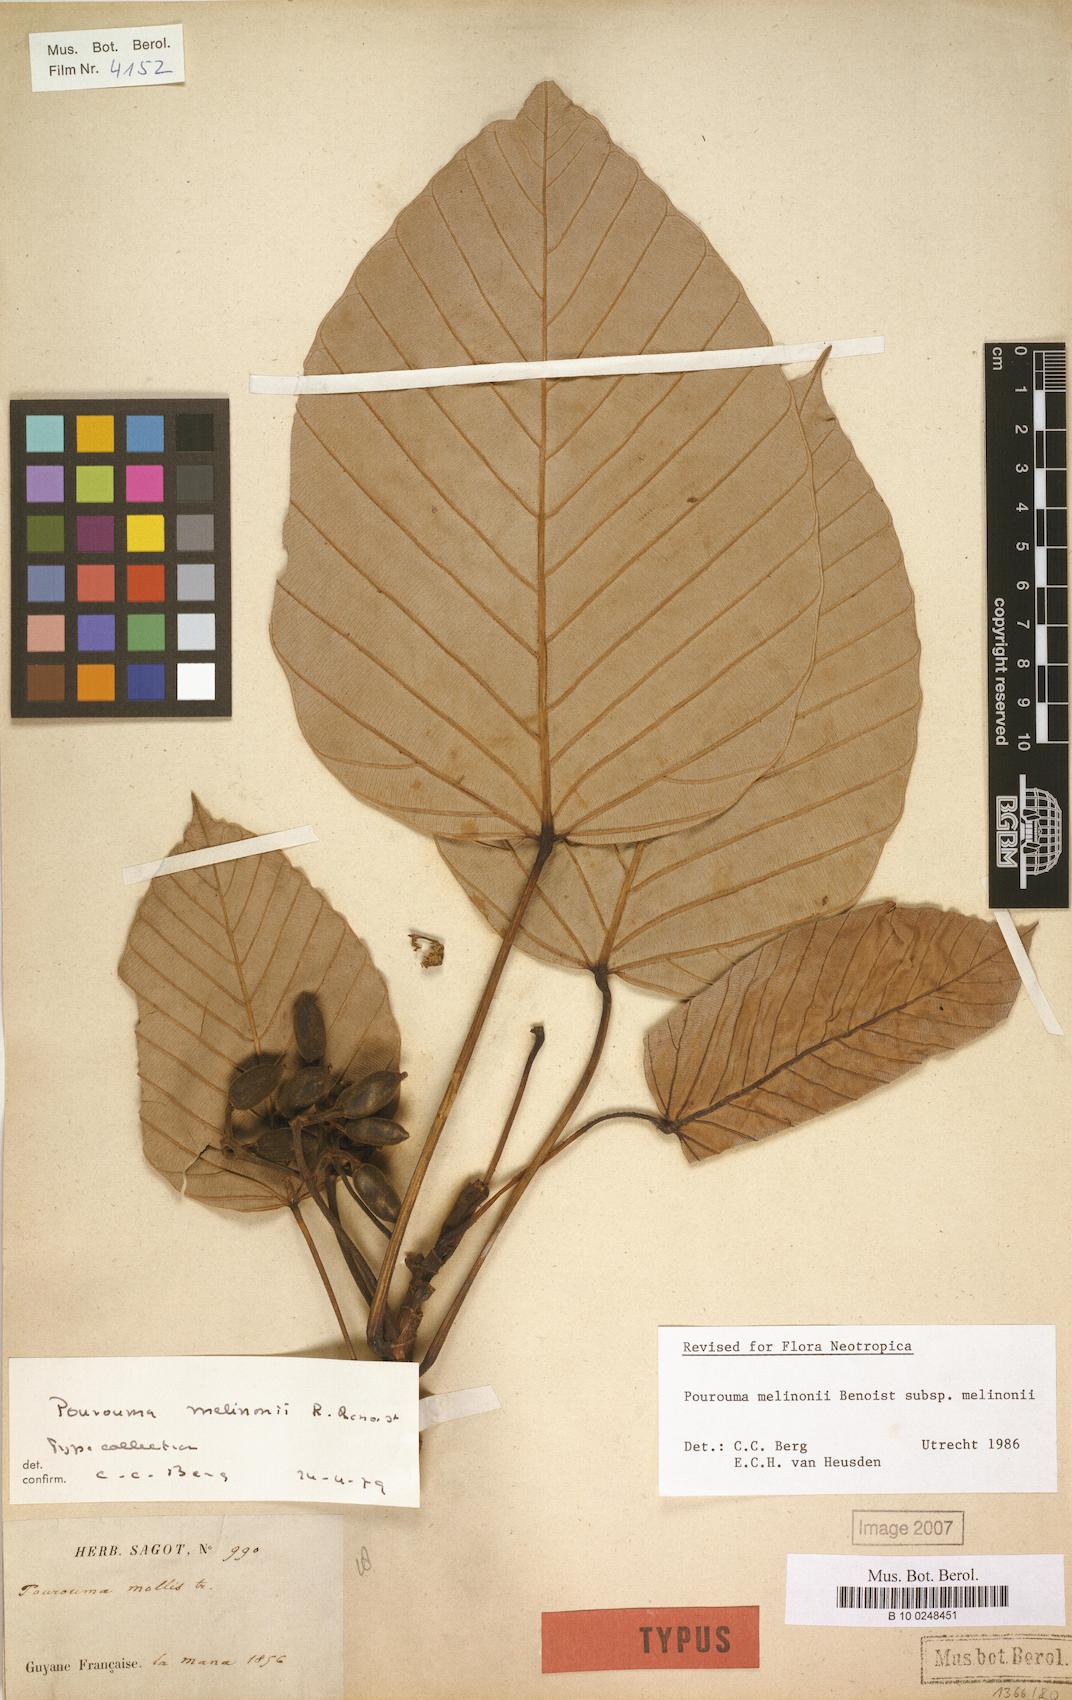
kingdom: Plantae
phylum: Tracheophyta
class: Magnoliopsida
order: Rosales
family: Urticaceae
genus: Pourouma
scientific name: Pourouma melinonii
